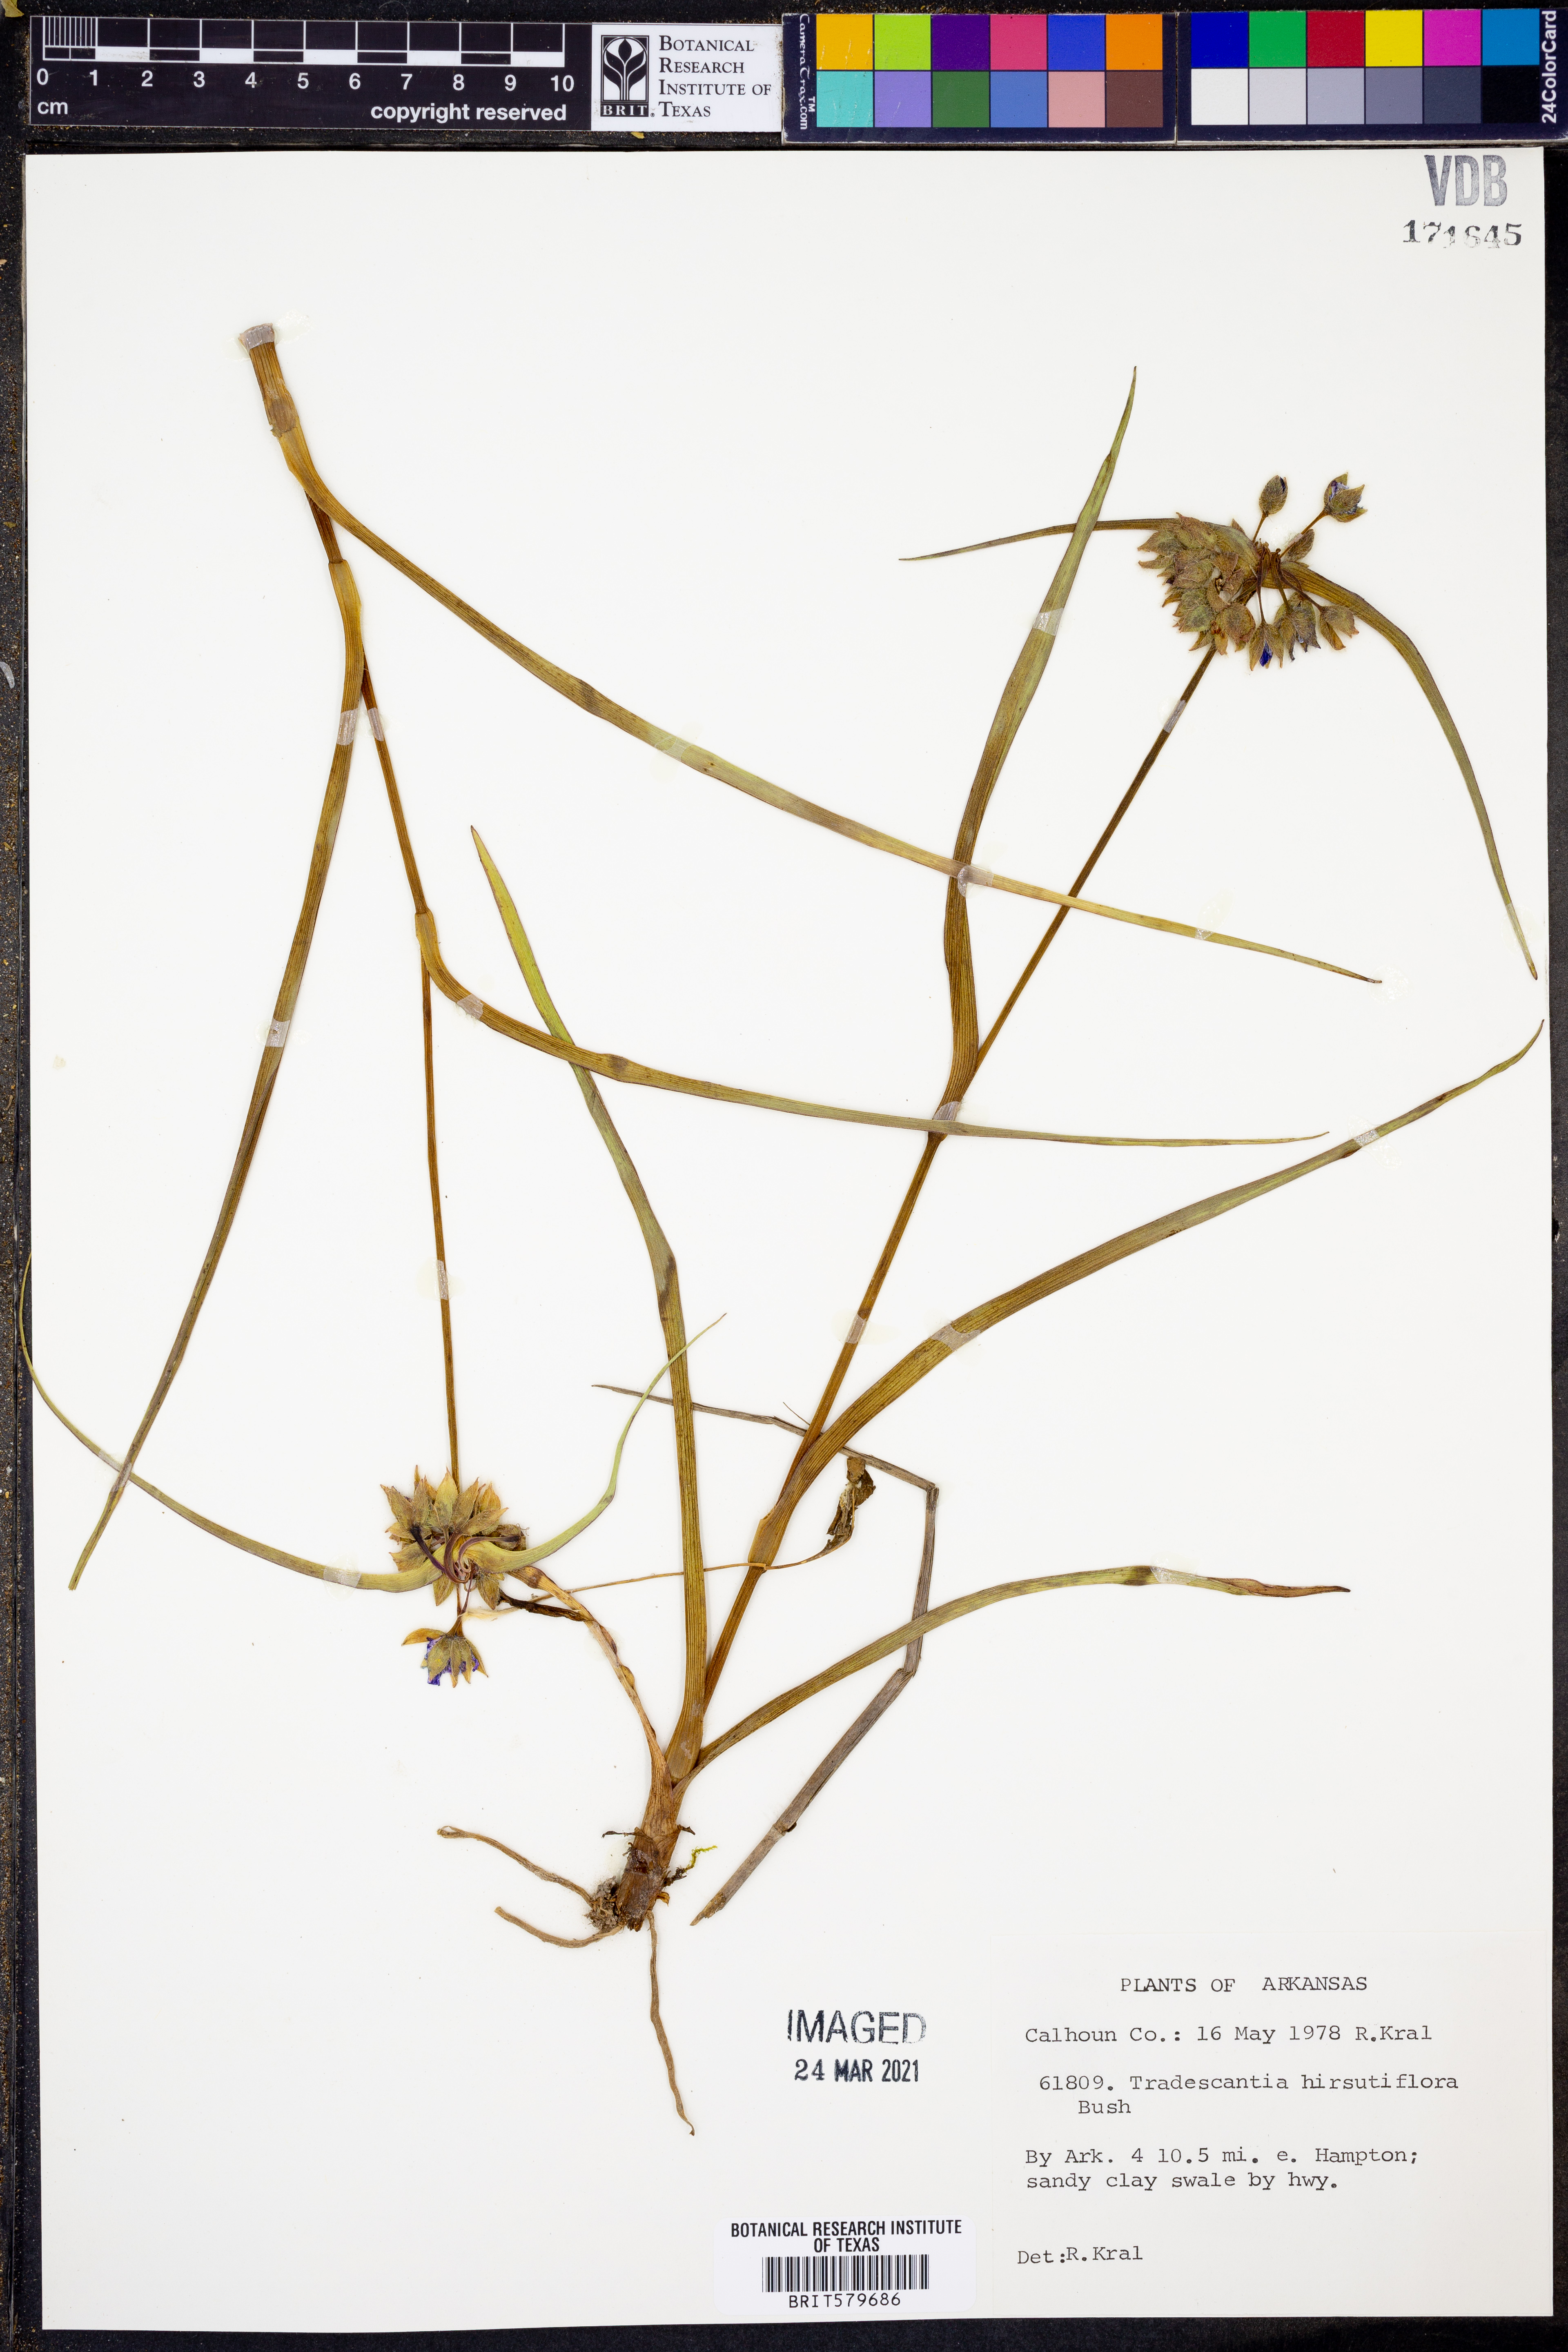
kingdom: Plantae
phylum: Tracheophyta
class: Liliopsida
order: Commelinales
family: Commelinaceae
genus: Tradescantia
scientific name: Tradescantia hirsutiflora
